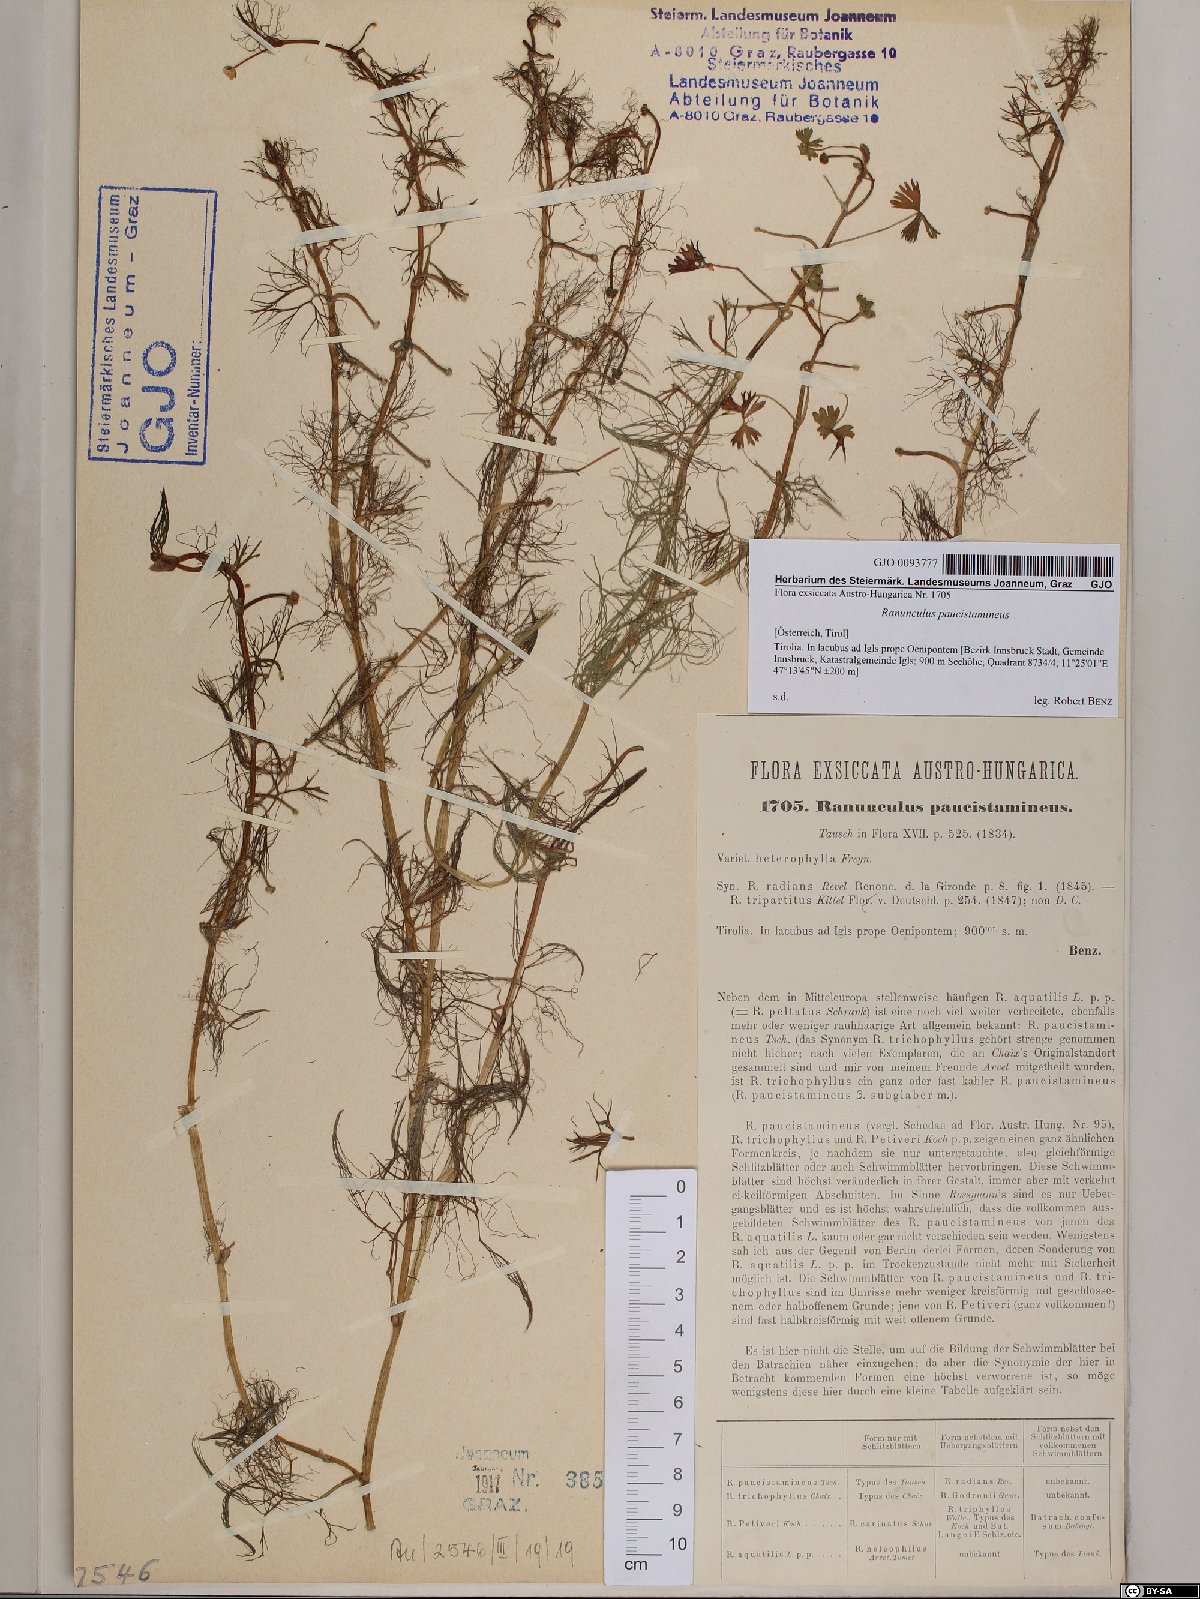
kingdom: Plantae
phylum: Tracheophyta
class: Magnoliopsida
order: Ranunculales
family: Ranunculaceae
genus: Ranunculus
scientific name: Ranunculus
